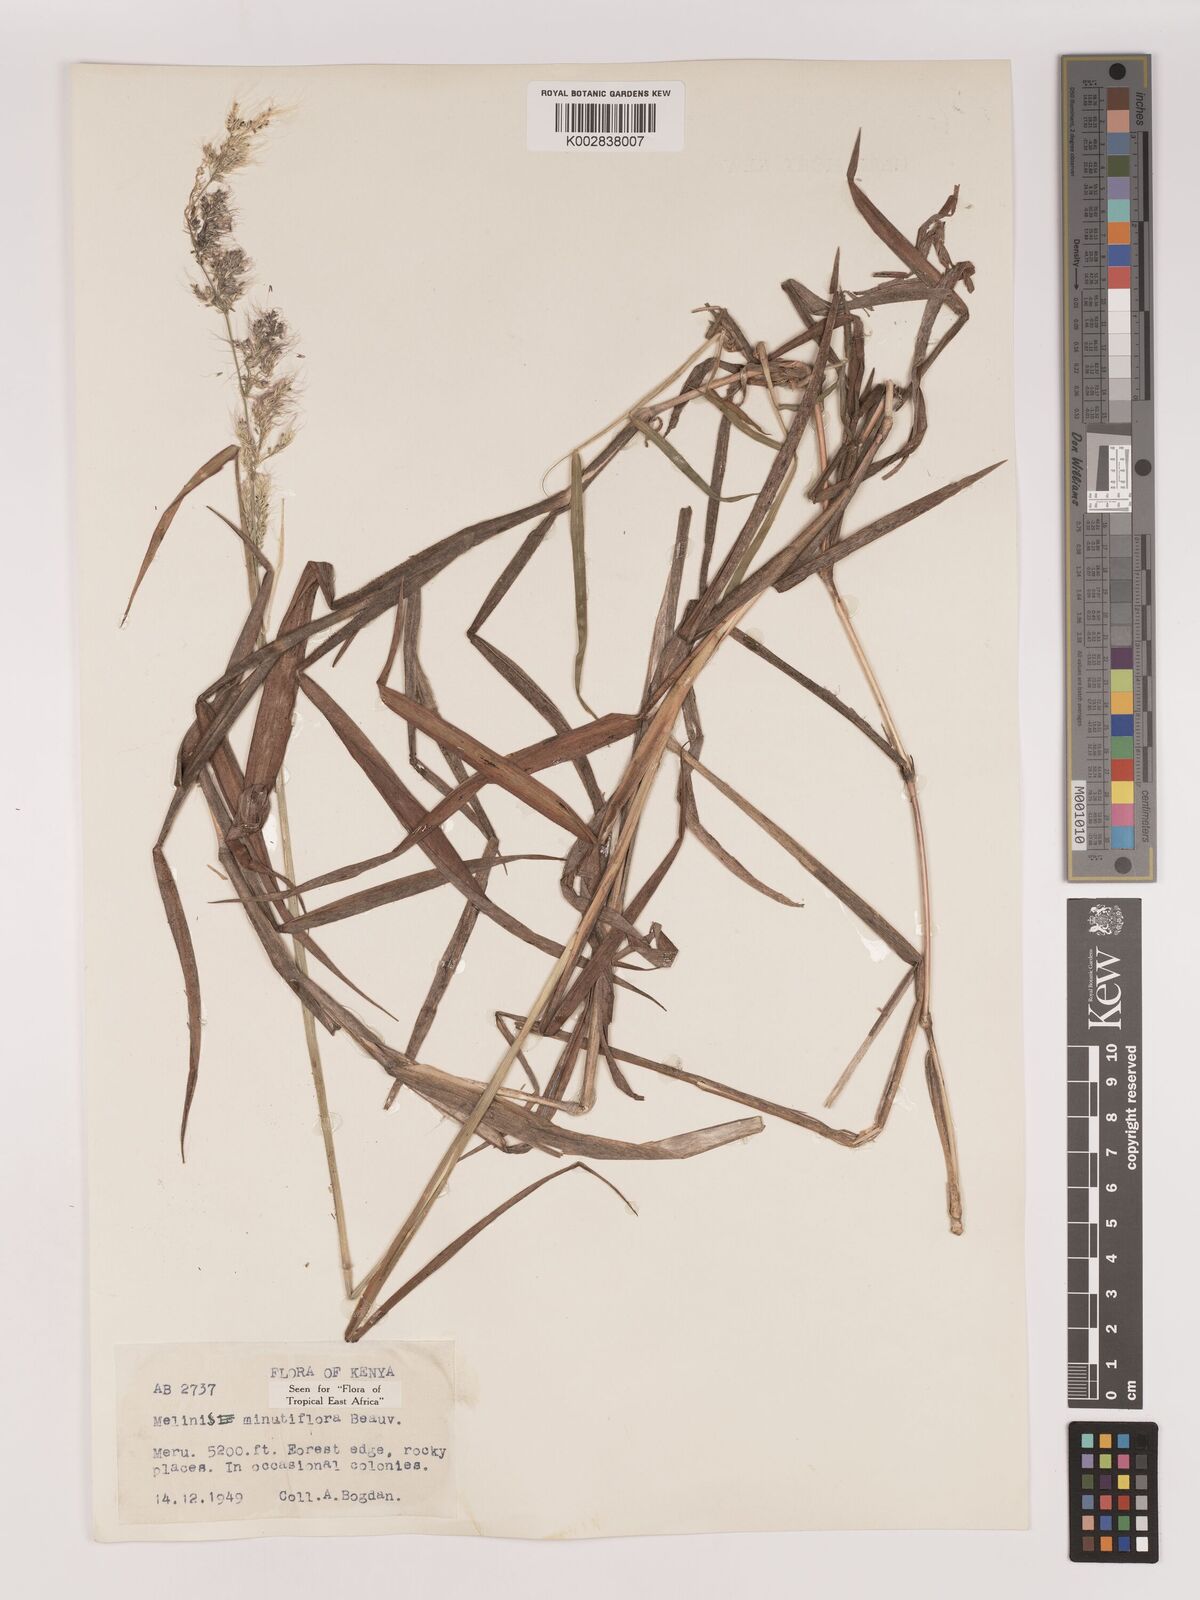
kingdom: Plantae
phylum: Tracheophyta
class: Liliopsida
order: Poales
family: Poaceae
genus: Melinis
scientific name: Melinis minutiflora
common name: Molassesgrass
